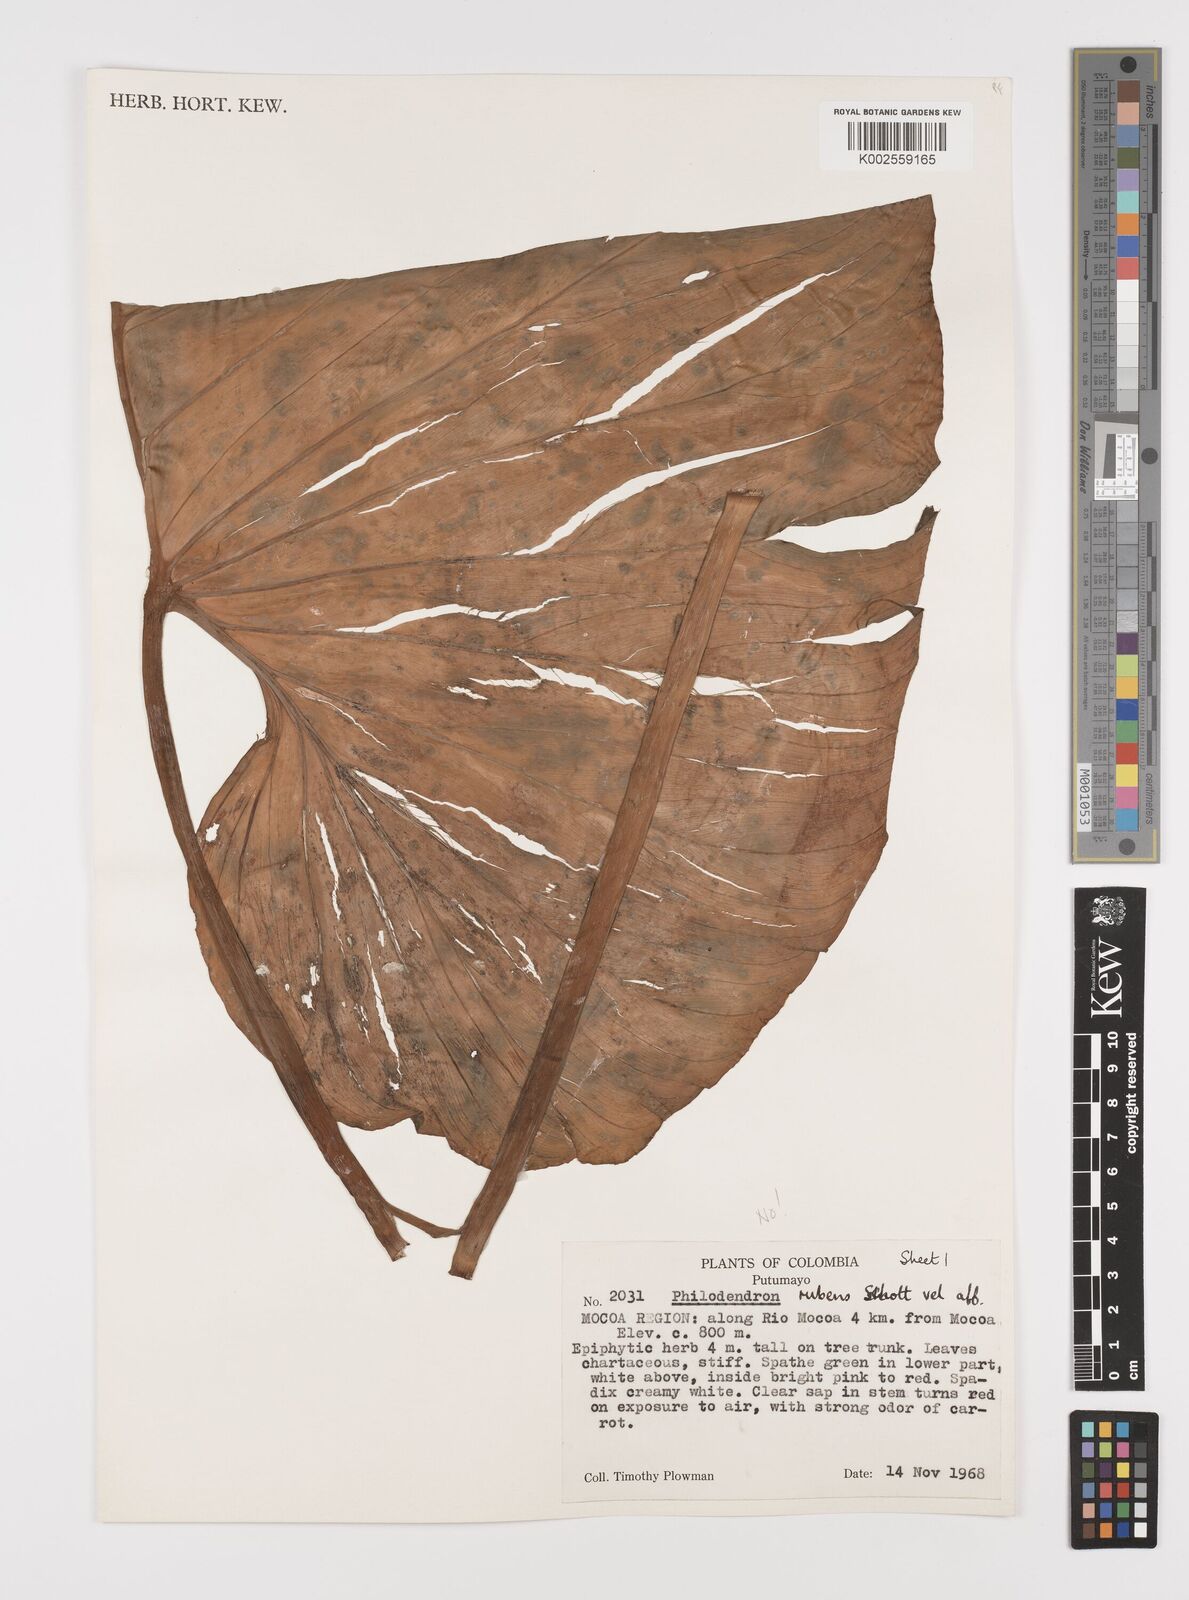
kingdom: Plantae
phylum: Tracheophyta
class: Liliopsida
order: Alismatales
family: Araceae
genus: Philodendron
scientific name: Philodendron ornatum
